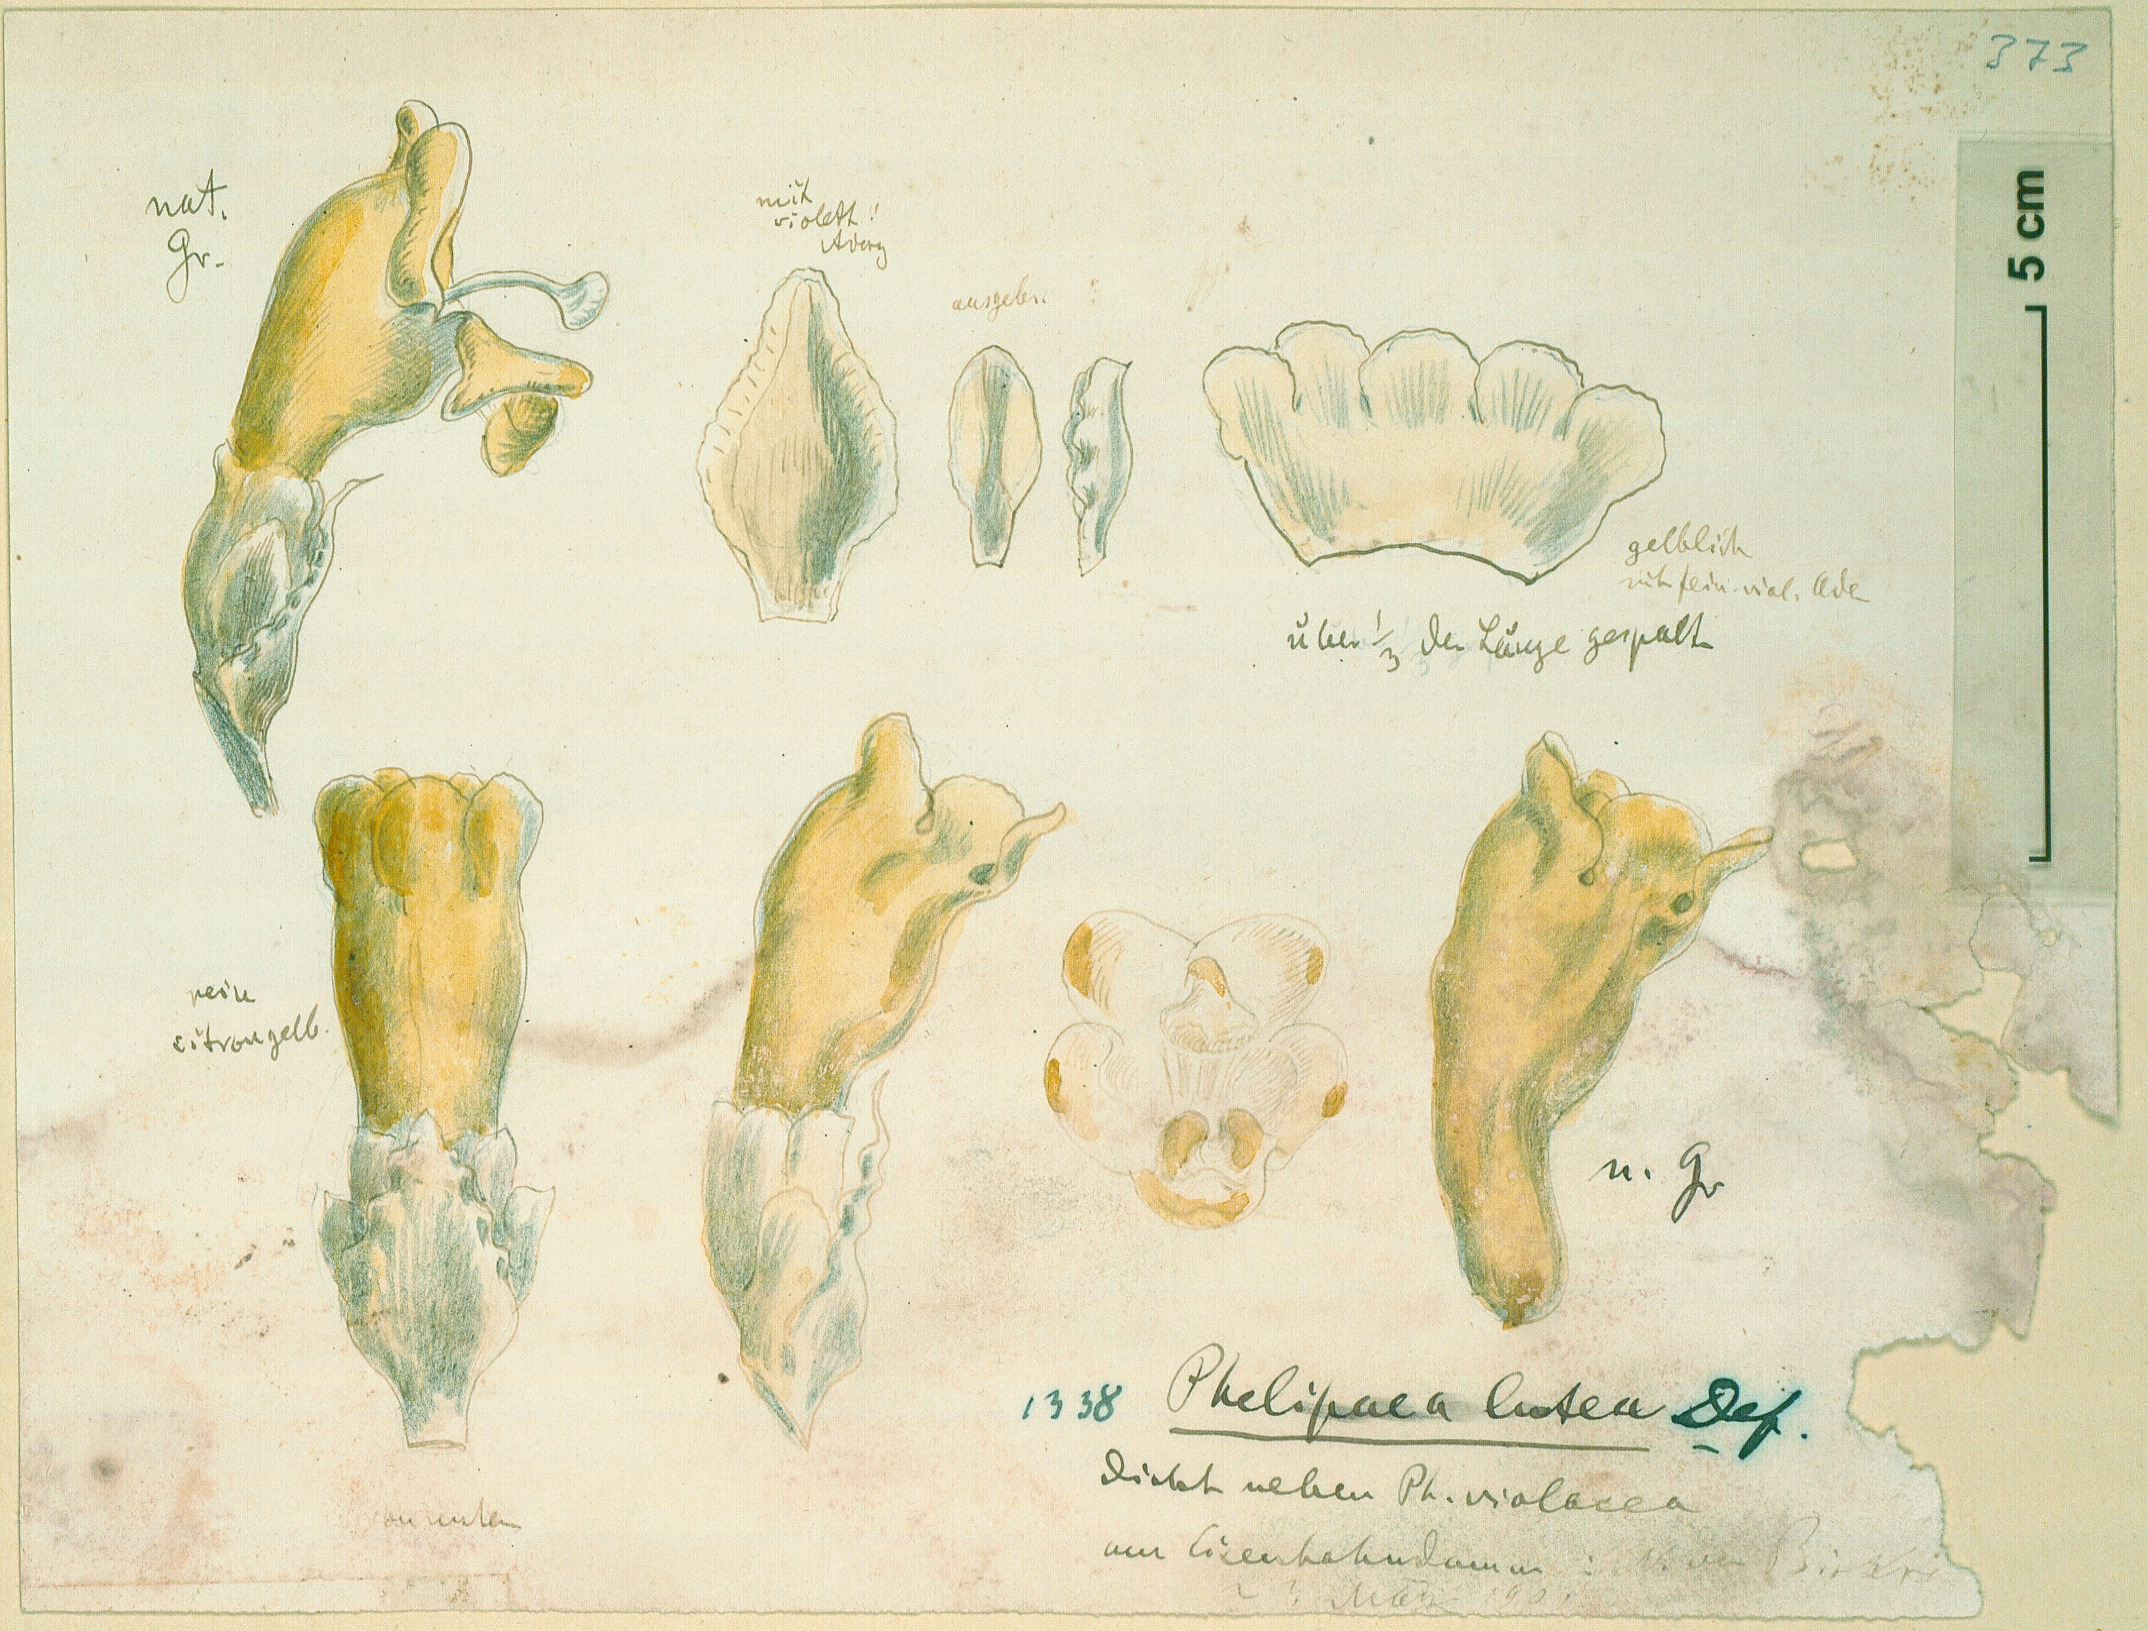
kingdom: Plantae
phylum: Tracheophyta
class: Magnoliopsida
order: Lamiales
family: Orobanchaceae
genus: Cistanche
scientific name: Cistanche phelypaea
